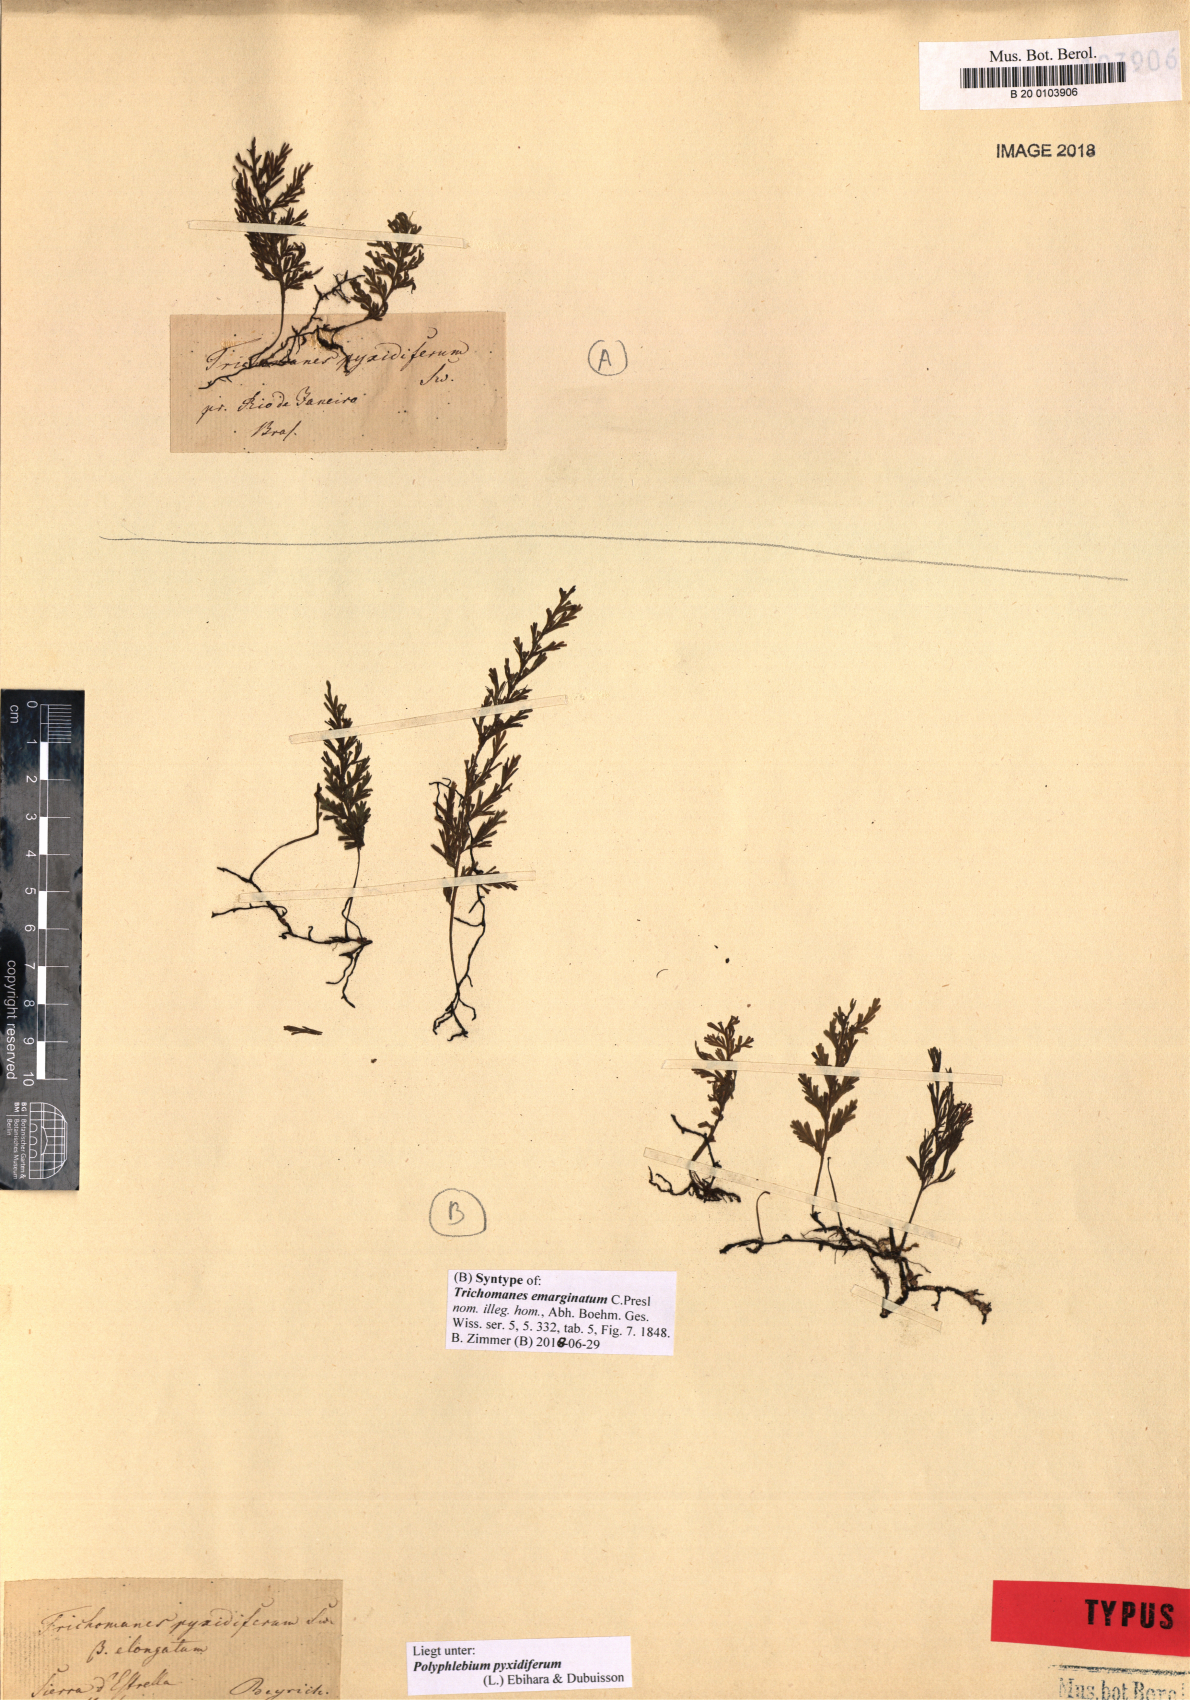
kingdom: Plantae
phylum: Tracheophyta
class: Polypodiopsida
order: Hymenophyllales
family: Hymenophyllaceae
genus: Polyphlebium
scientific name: Polyphlebium pyxidiferum
